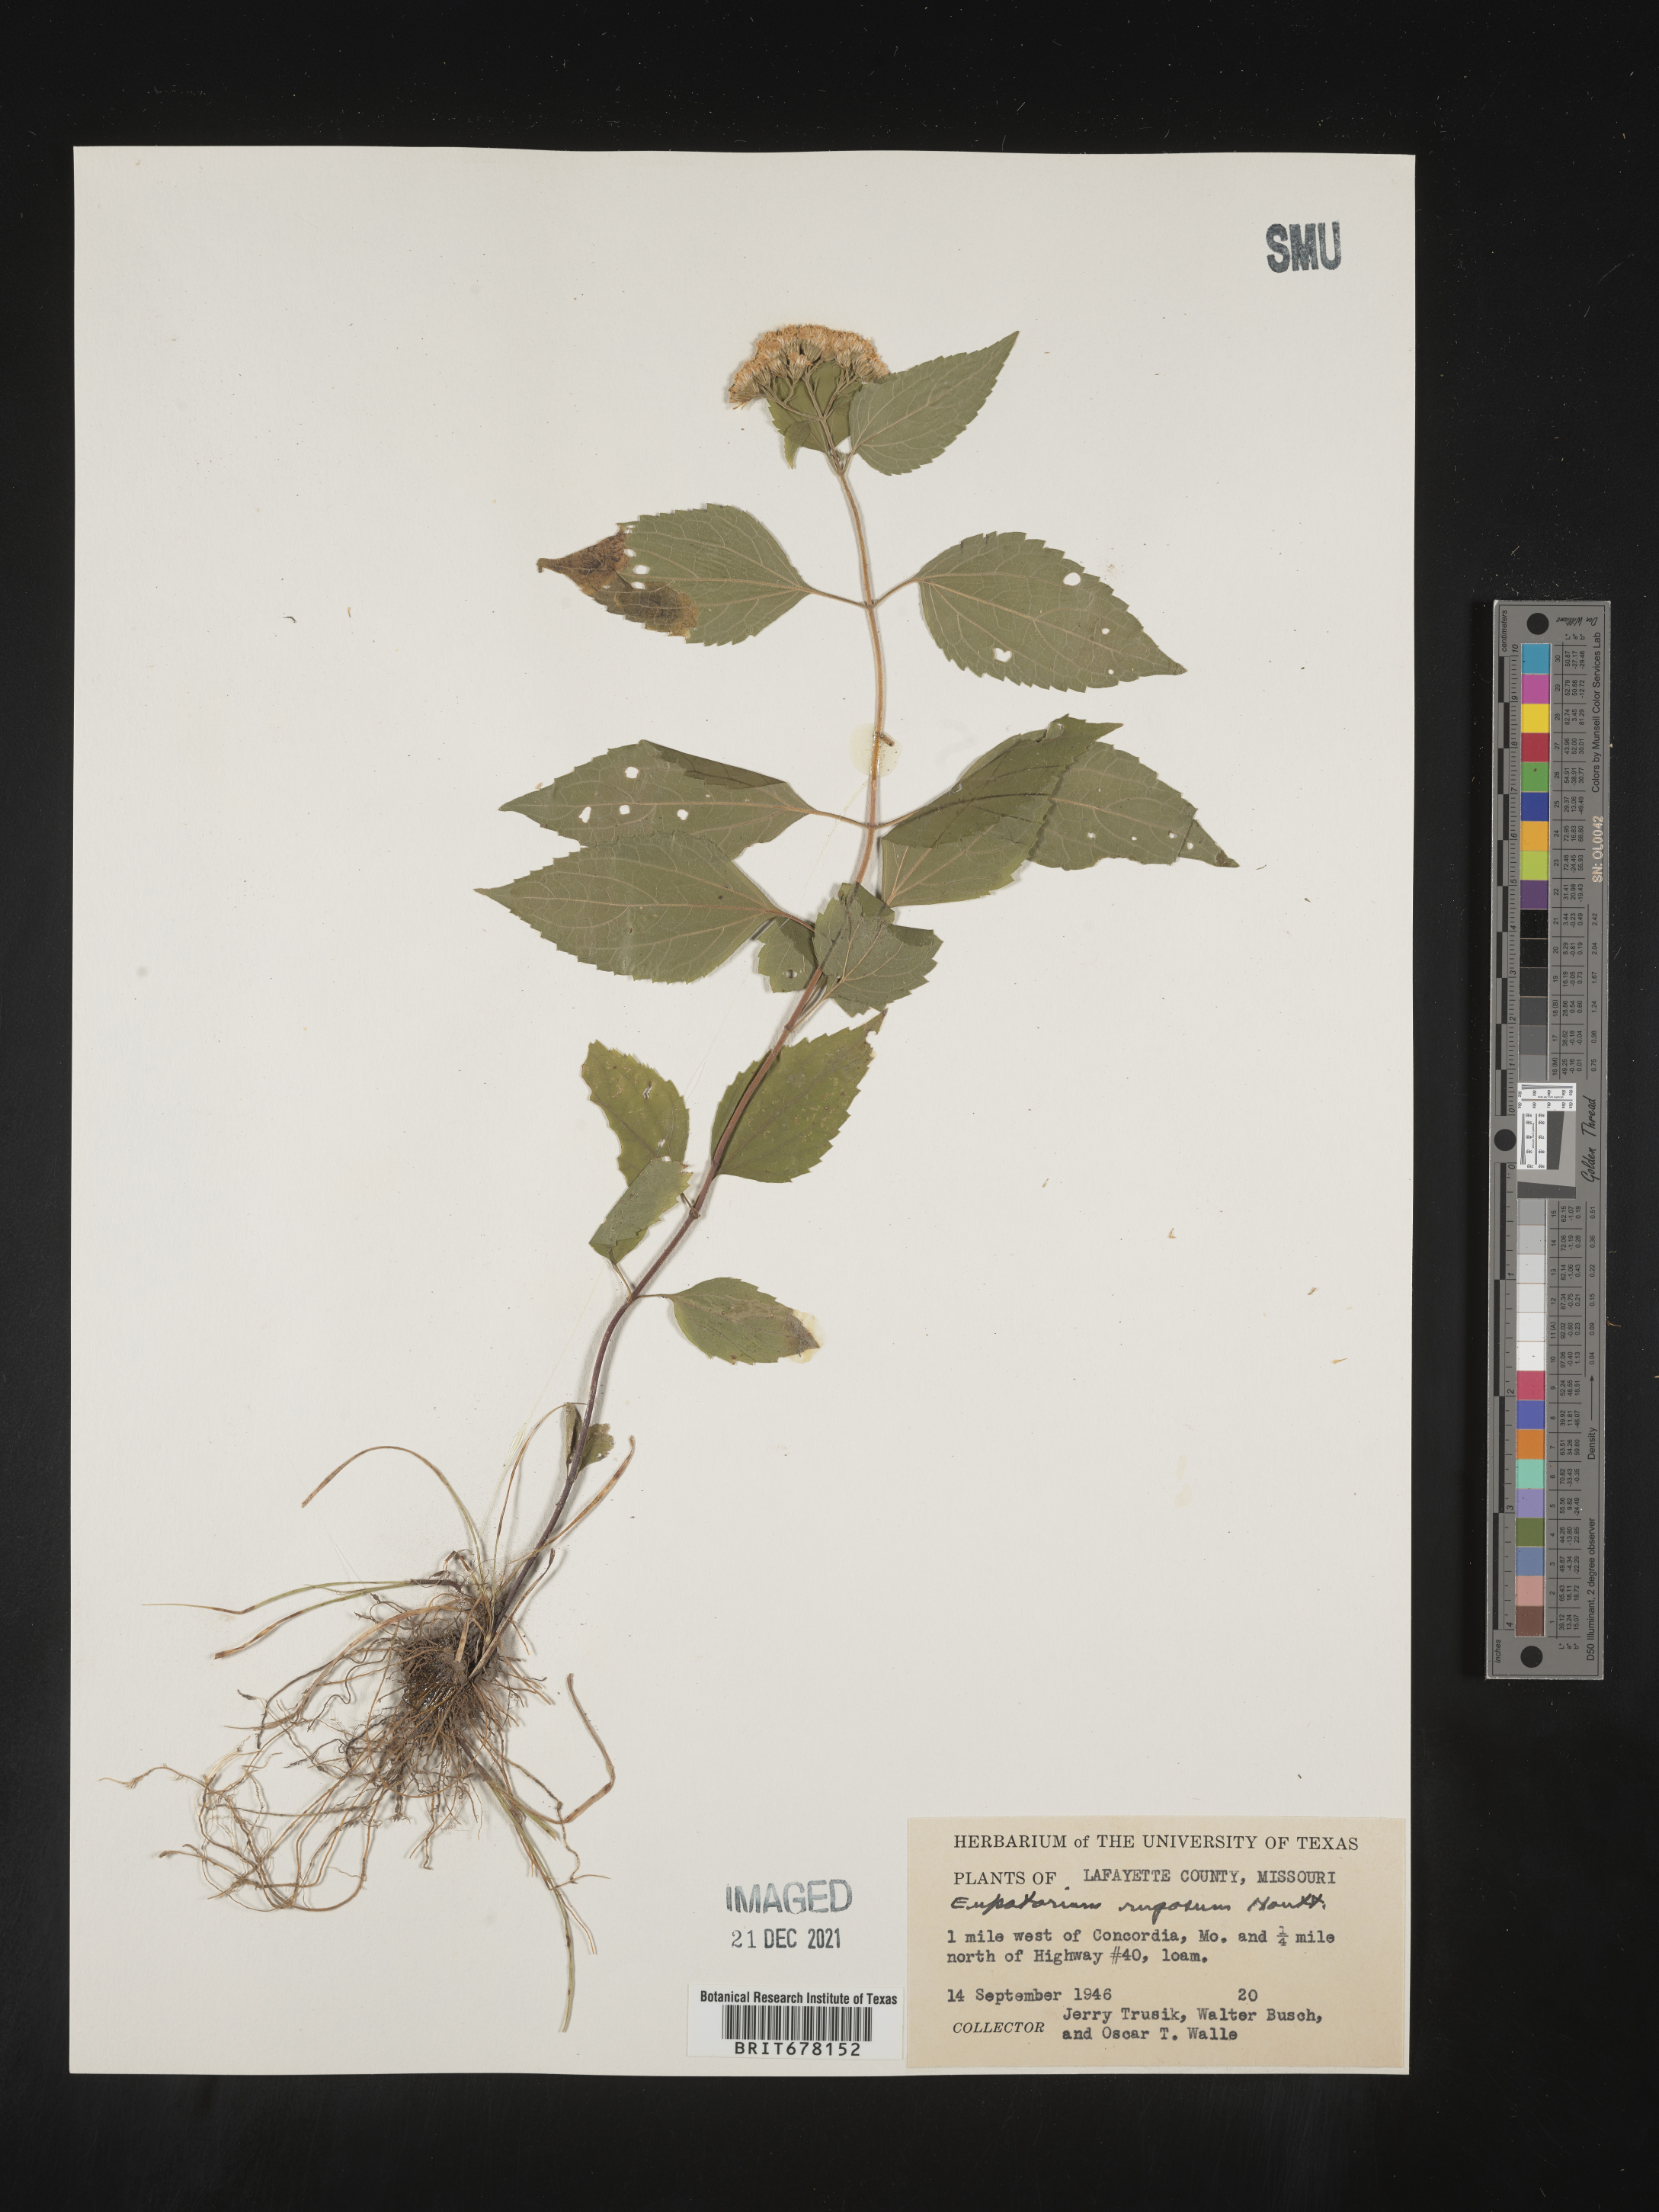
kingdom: Plantae
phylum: Tracheophyta
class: Magnoliopsida
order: Asterales
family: Asteraceae
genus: Cronquistianthus
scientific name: Cronquistianthus bulliferus
